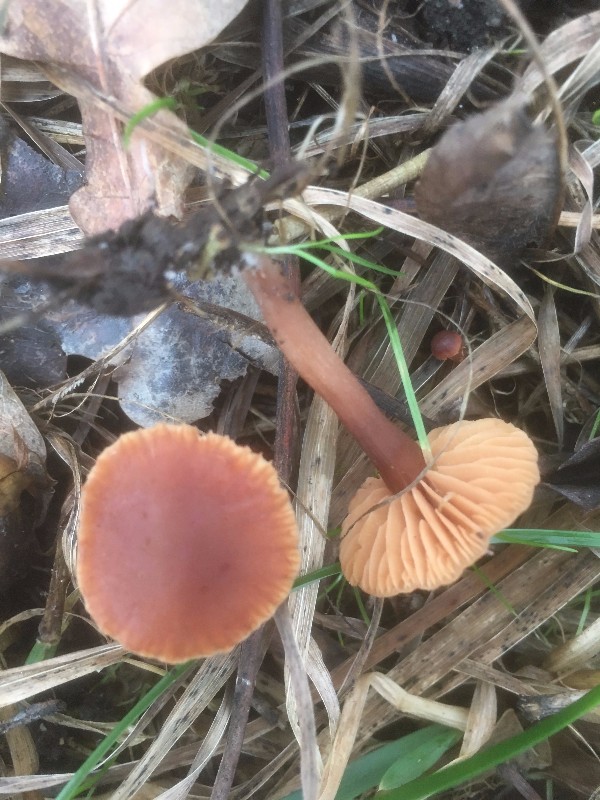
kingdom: Fungi
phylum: Basidiomycota
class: Agaricomycetes
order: Agaricales
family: Tubariaceae
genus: Tubaria
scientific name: Tubaria furfuracea
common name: kliddet fnughat
